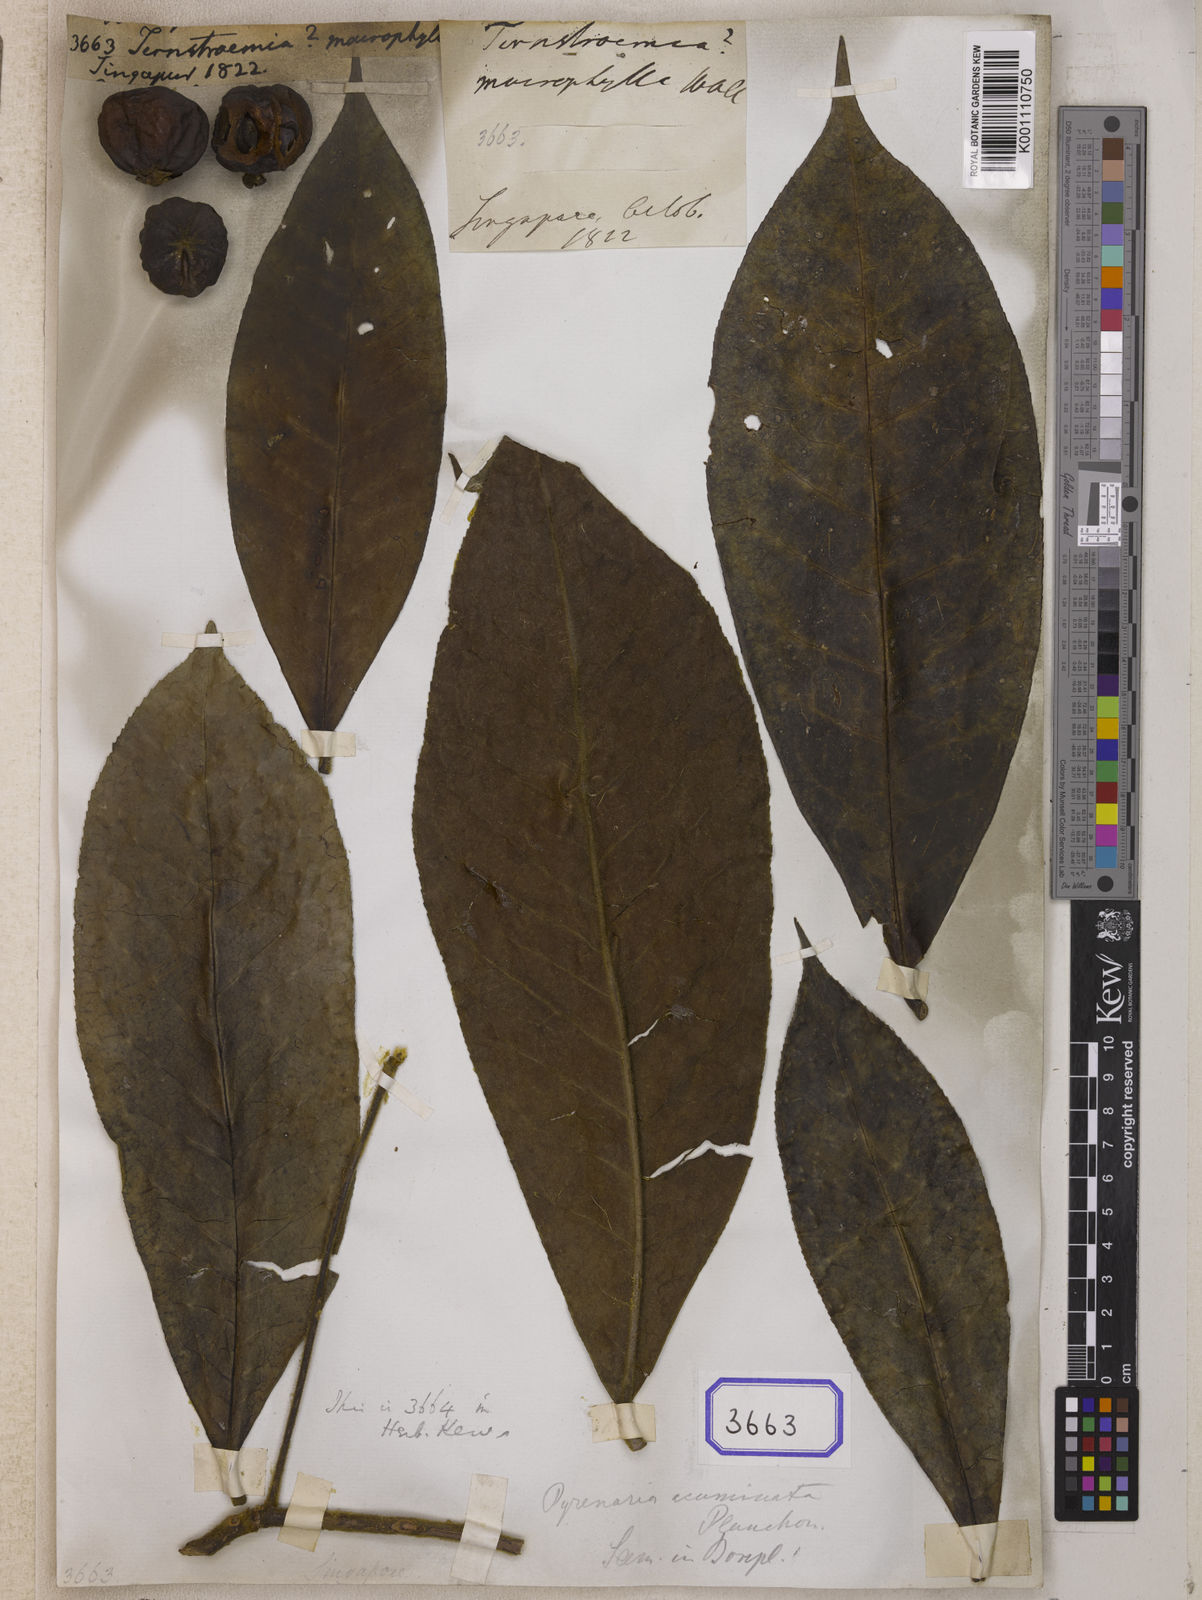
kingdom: Plantae
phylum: Tracheophyta
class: Magnoliopsida
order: Ericales
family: Pentaphylacaceae
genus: Ternstroemia
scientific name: Ternstroemia
